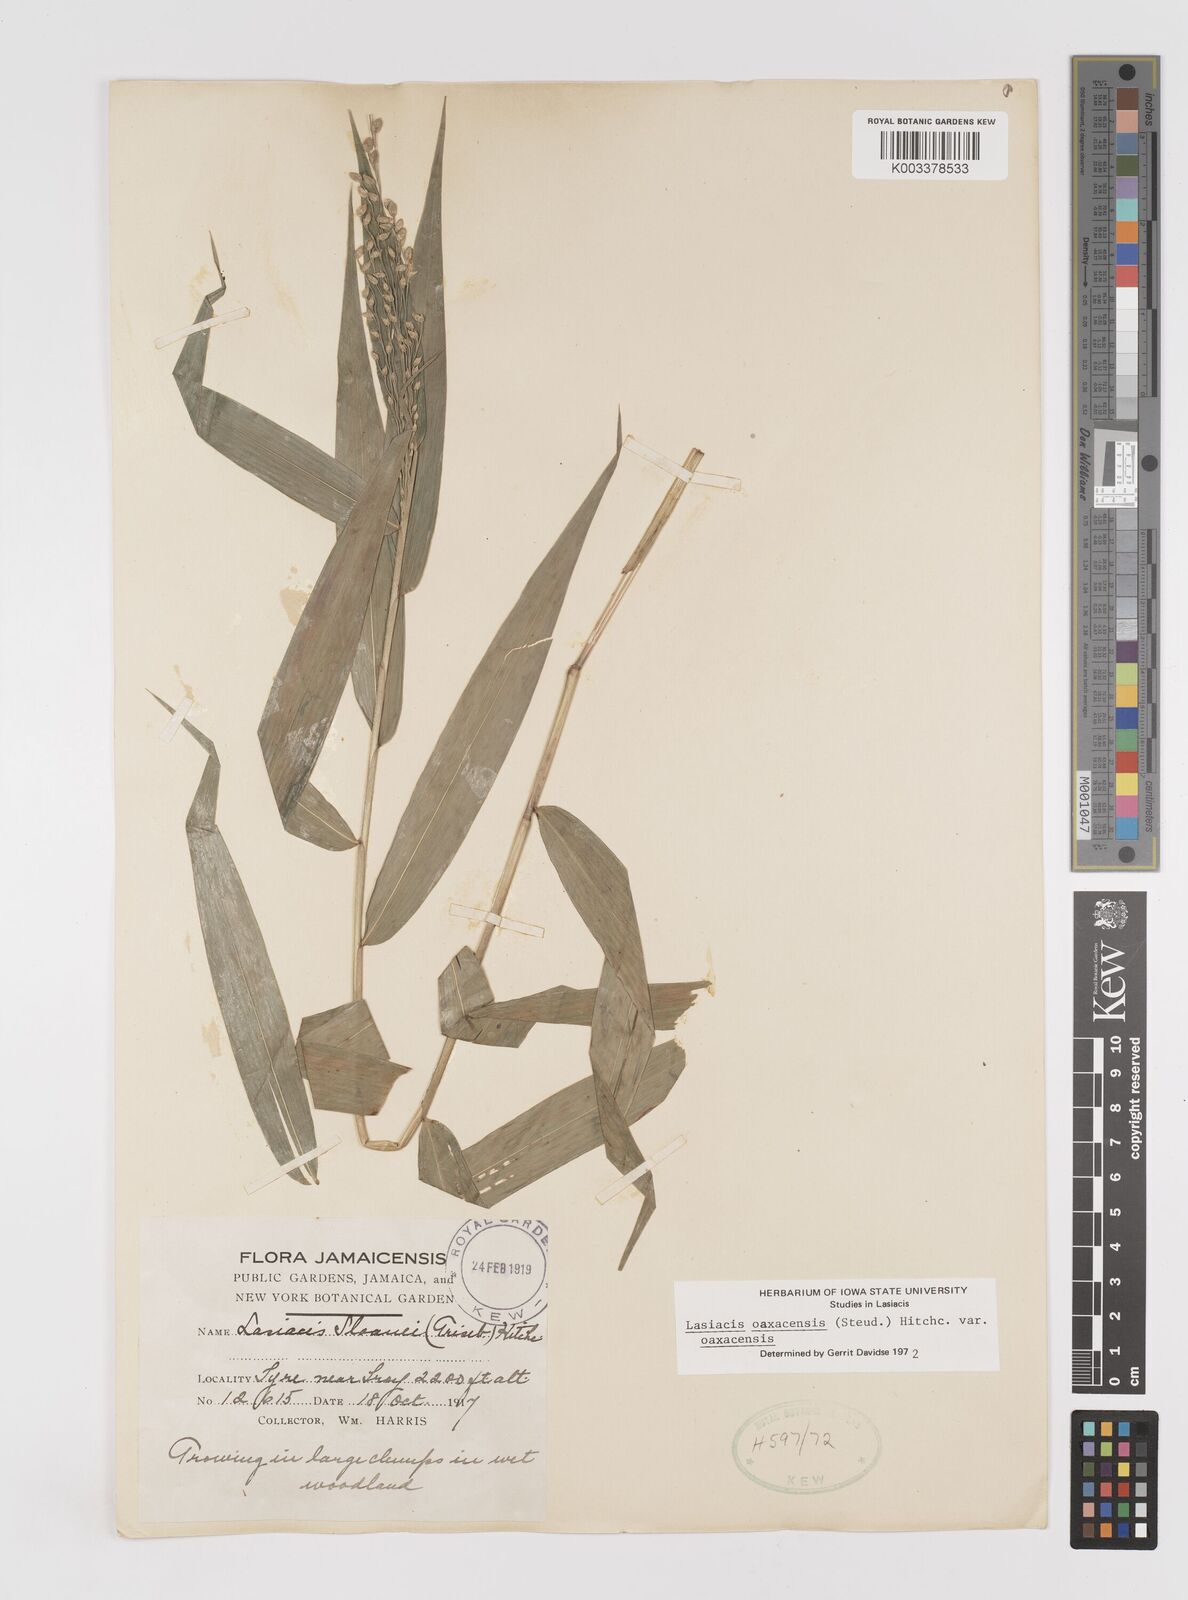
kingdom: Plantae
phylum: Tracheophyta
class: Liliopsida
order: Poales
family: Poaceae
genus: Lasiacis
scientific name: Lasiacis oaxacensis
